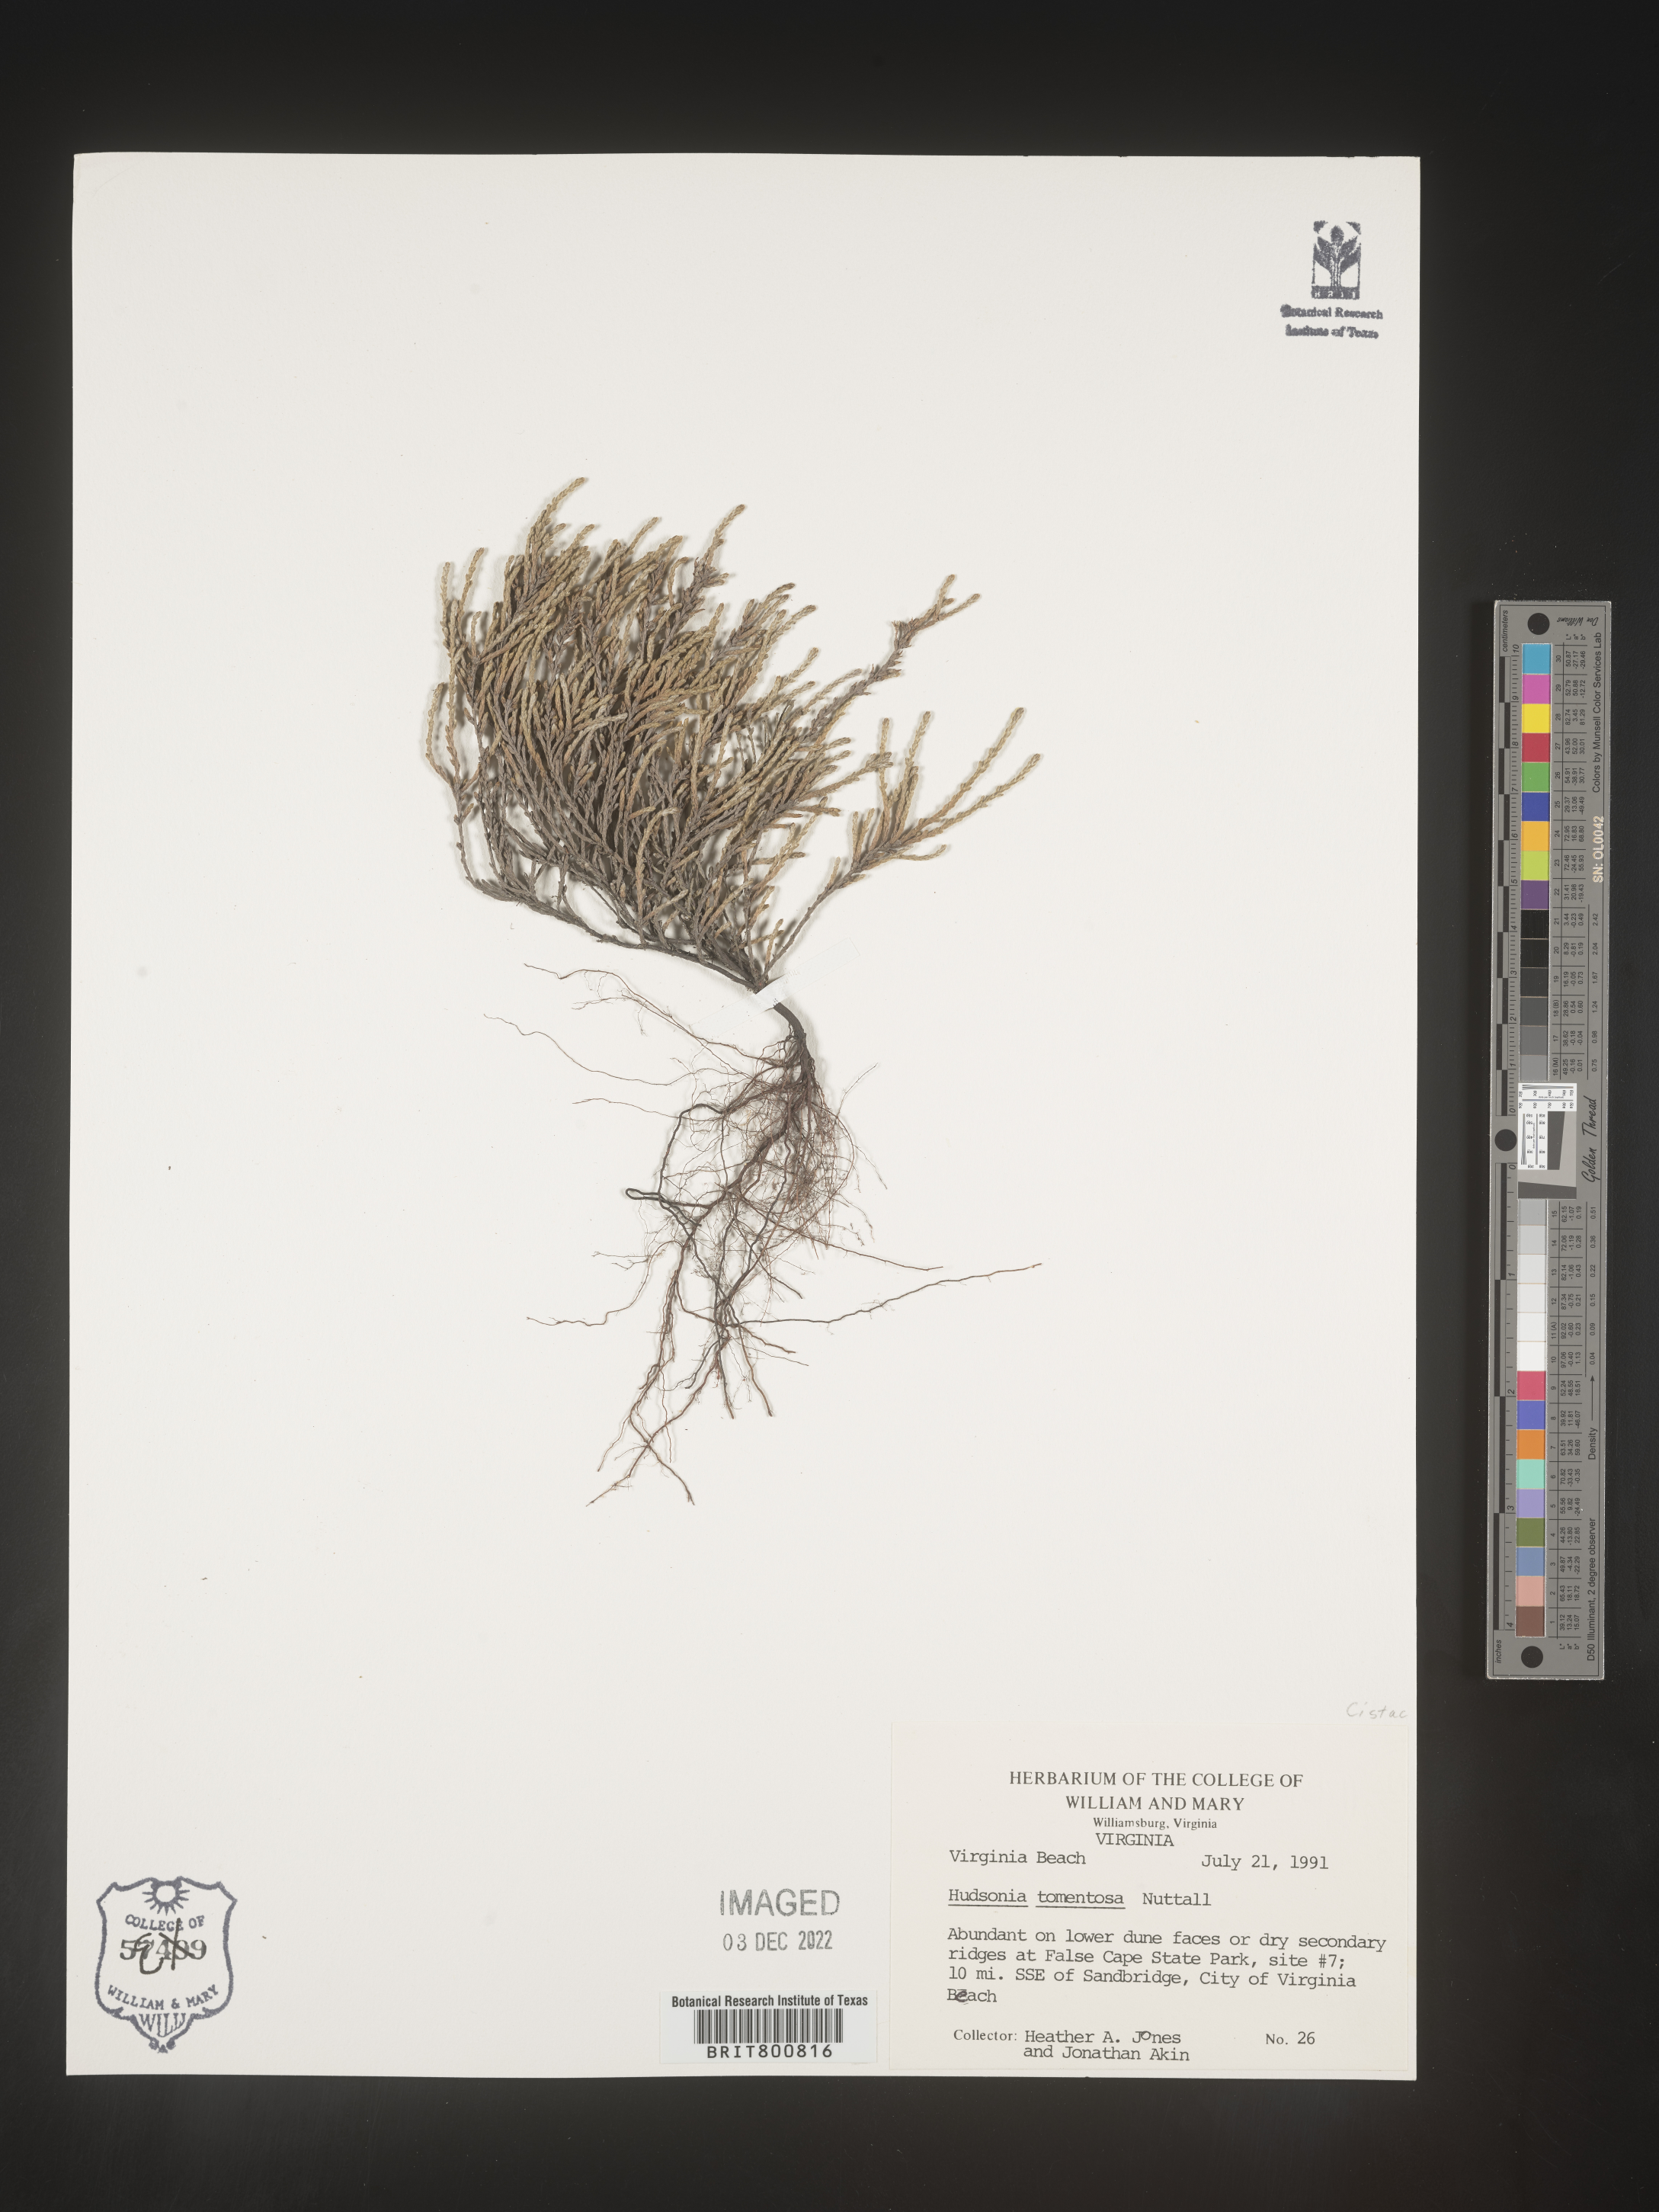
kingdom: Plantae
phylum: Tracheophyta
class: Magnoliopsida
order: Malvales
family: Cistaceae
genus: Hudsonia
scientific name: Hudsonia tomentosa
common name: Beach-heath
